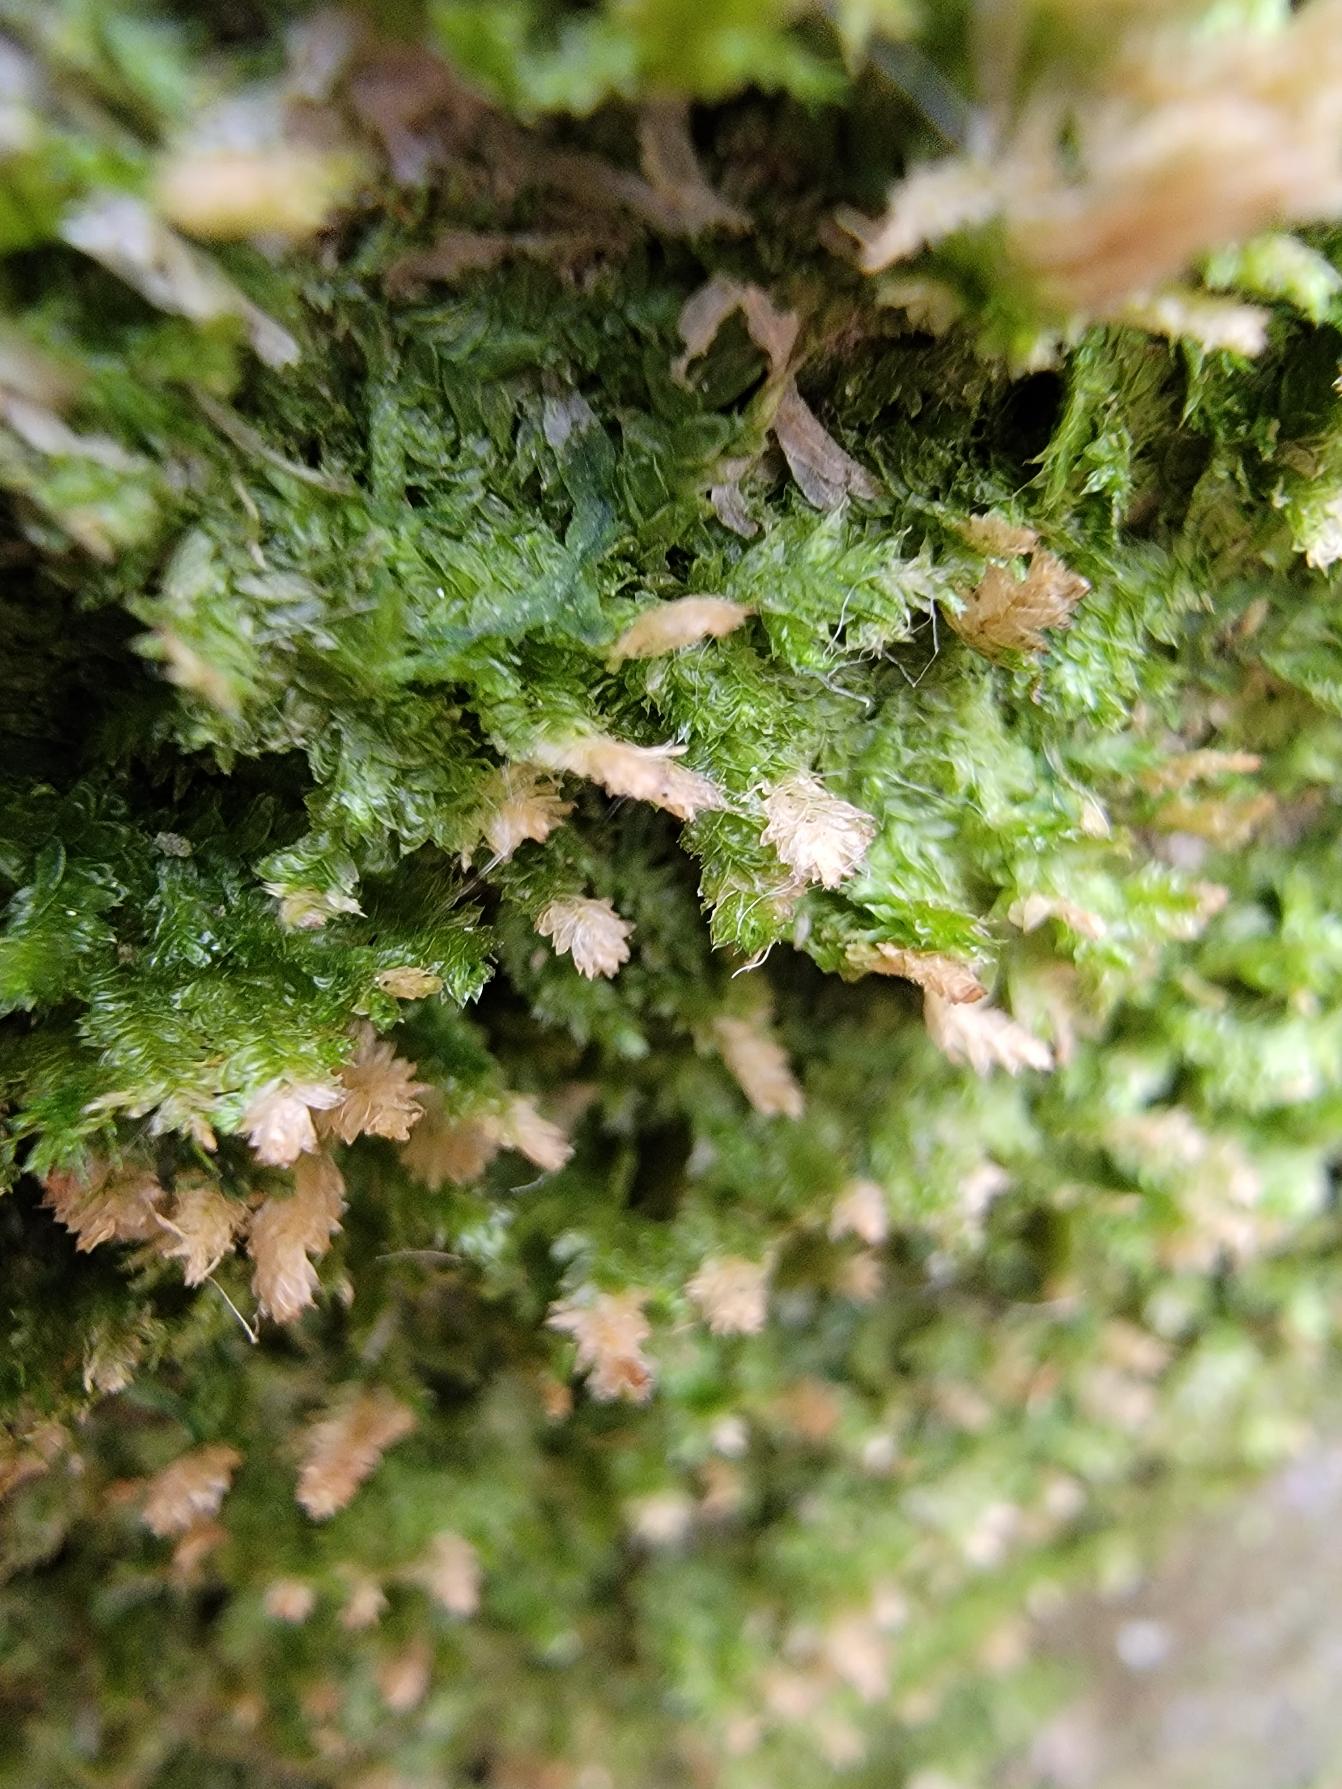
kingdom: Plantae
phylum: Bryophyta
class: Bryopsida
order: Hypnales
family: Neckeraceae
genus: Neckera
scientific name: Neckera pumila
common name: Lav fladmos
